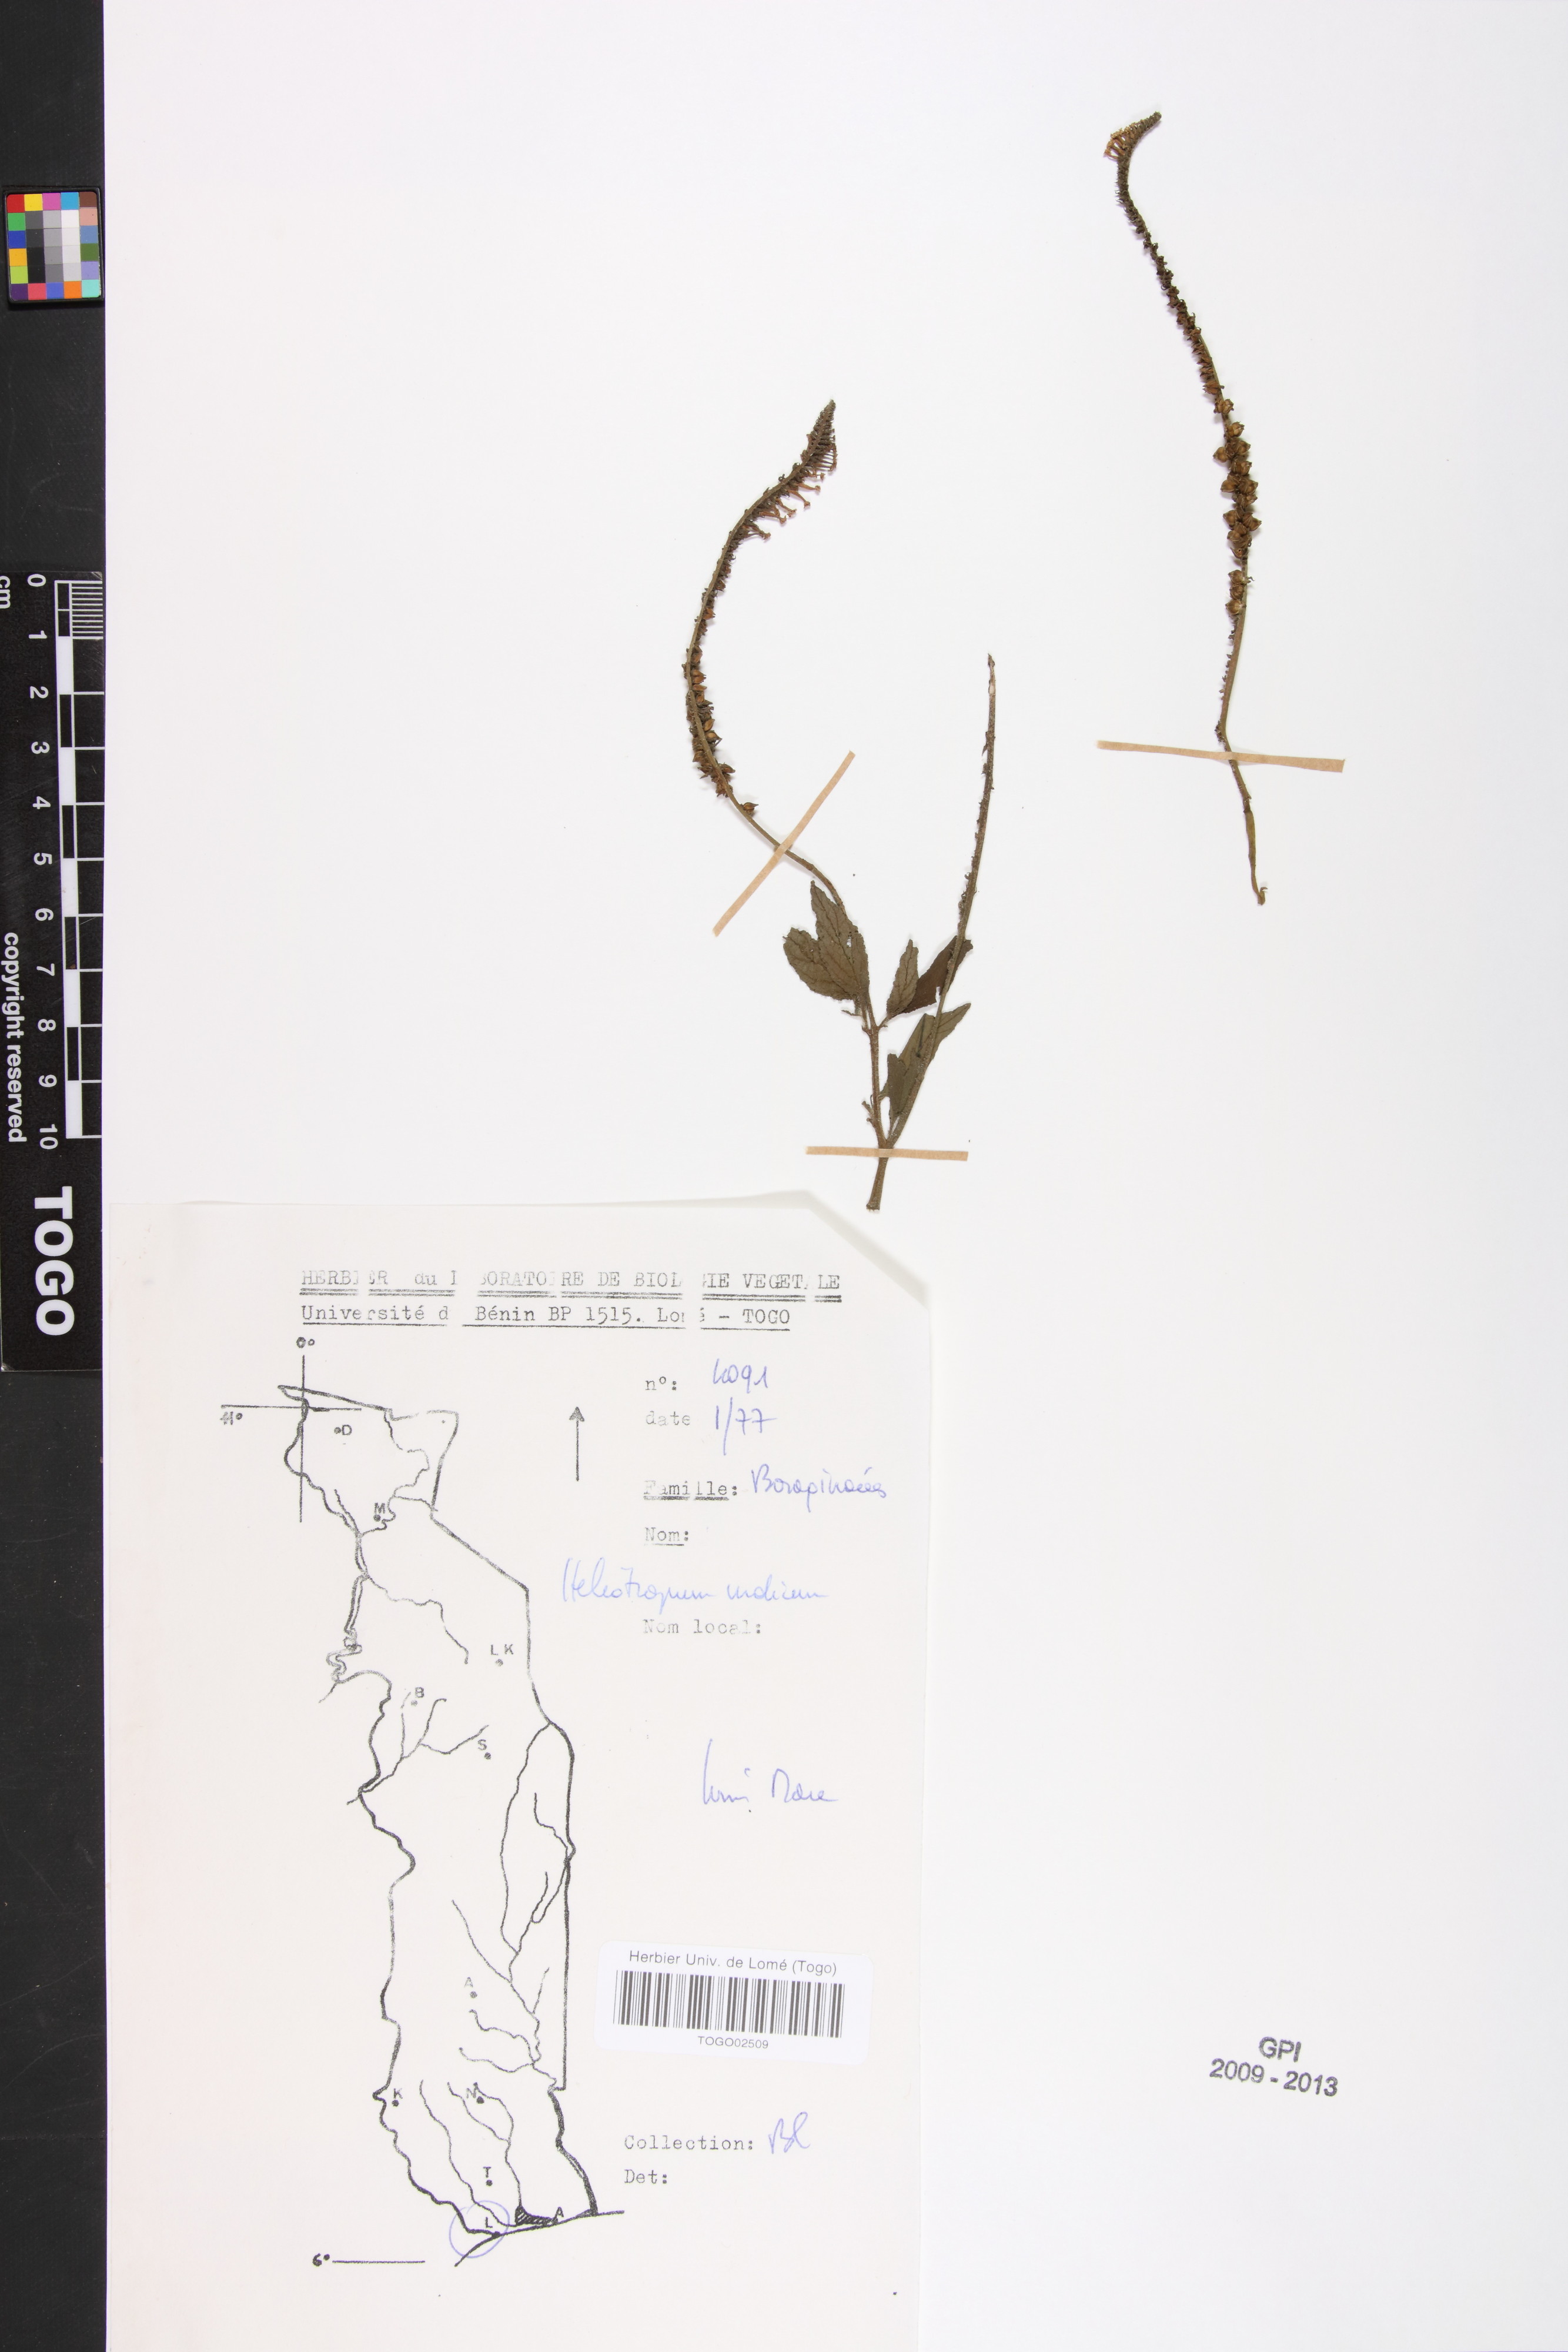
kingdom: Plantae
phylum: Tracheophyta
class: Magnoliopsida
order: Boraginales
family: Heliotropiaceae
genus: Heliotropium
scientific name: Heliotropium indicum
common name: Indian heliotrope
